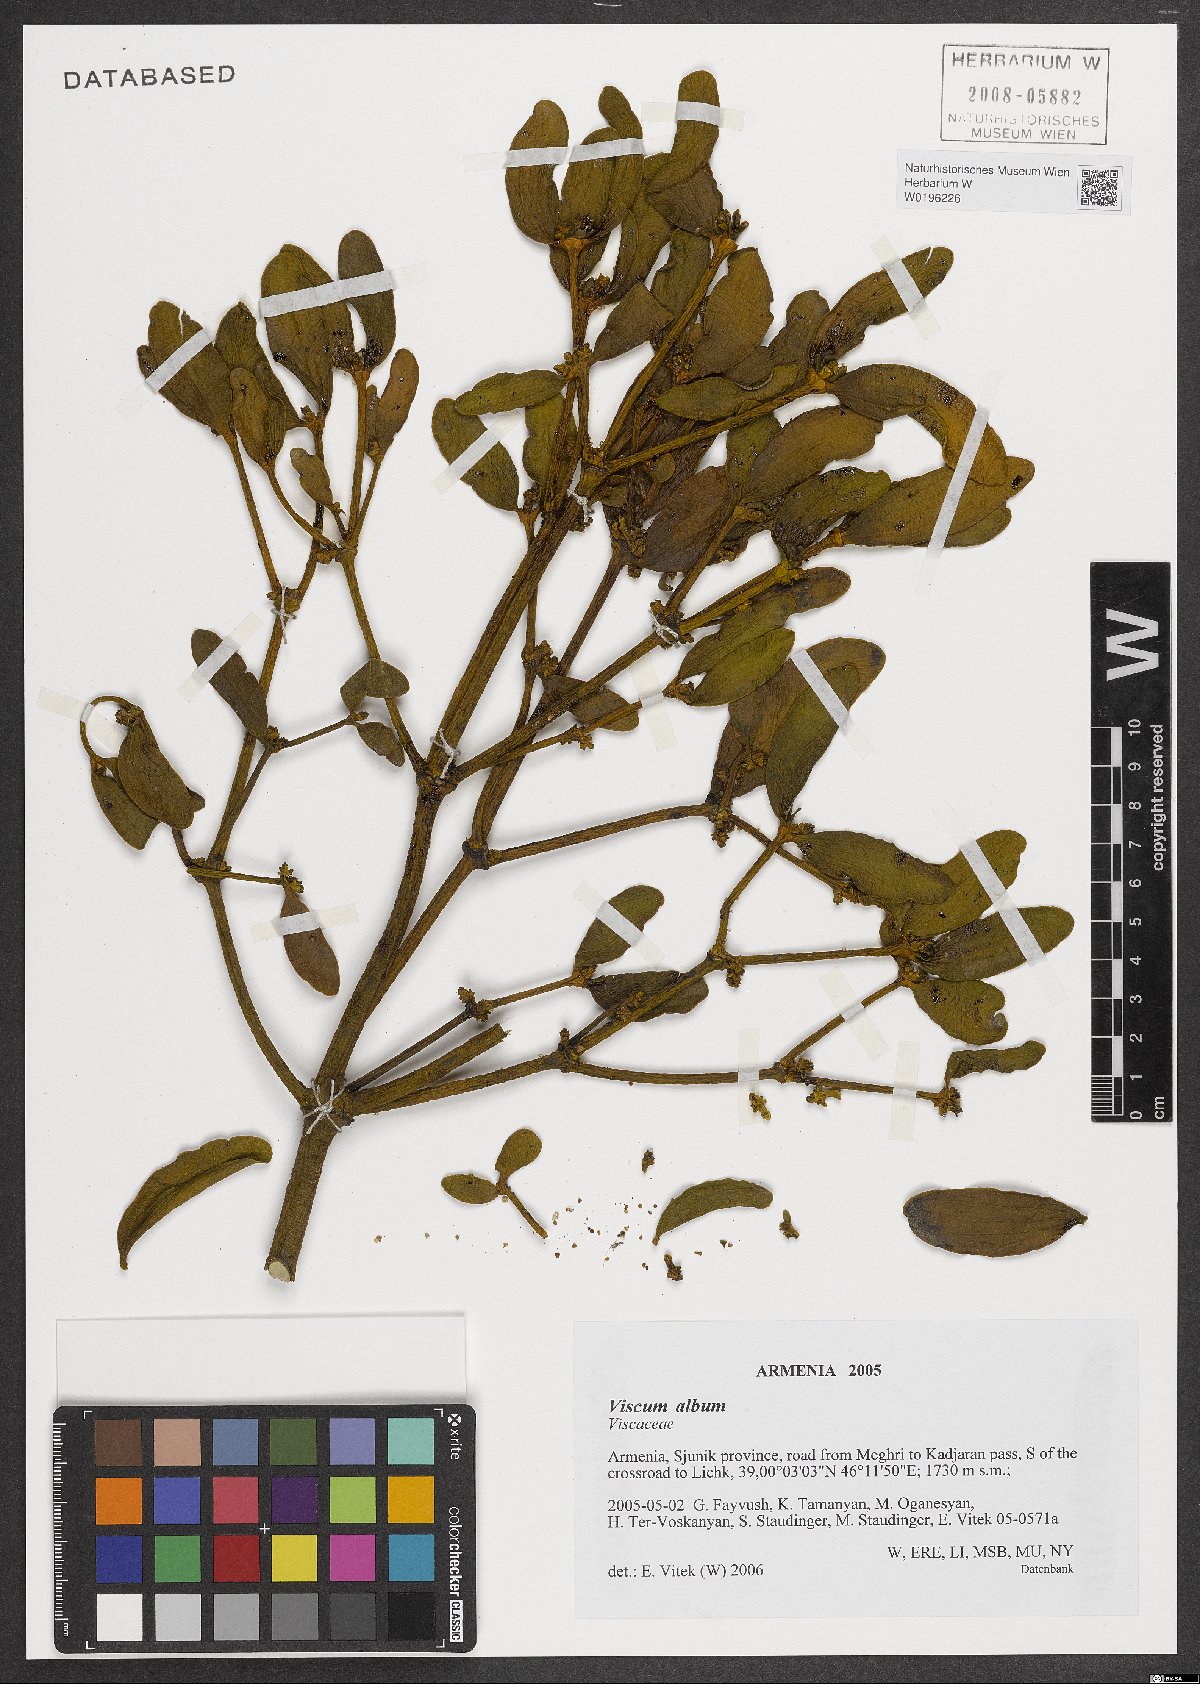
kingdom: Plantae
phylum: Tracheophyta
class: Magnoliopsida
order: Santalales
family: Viscaceae
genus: Viscum
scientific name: Viscum album
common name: Mistletoe
